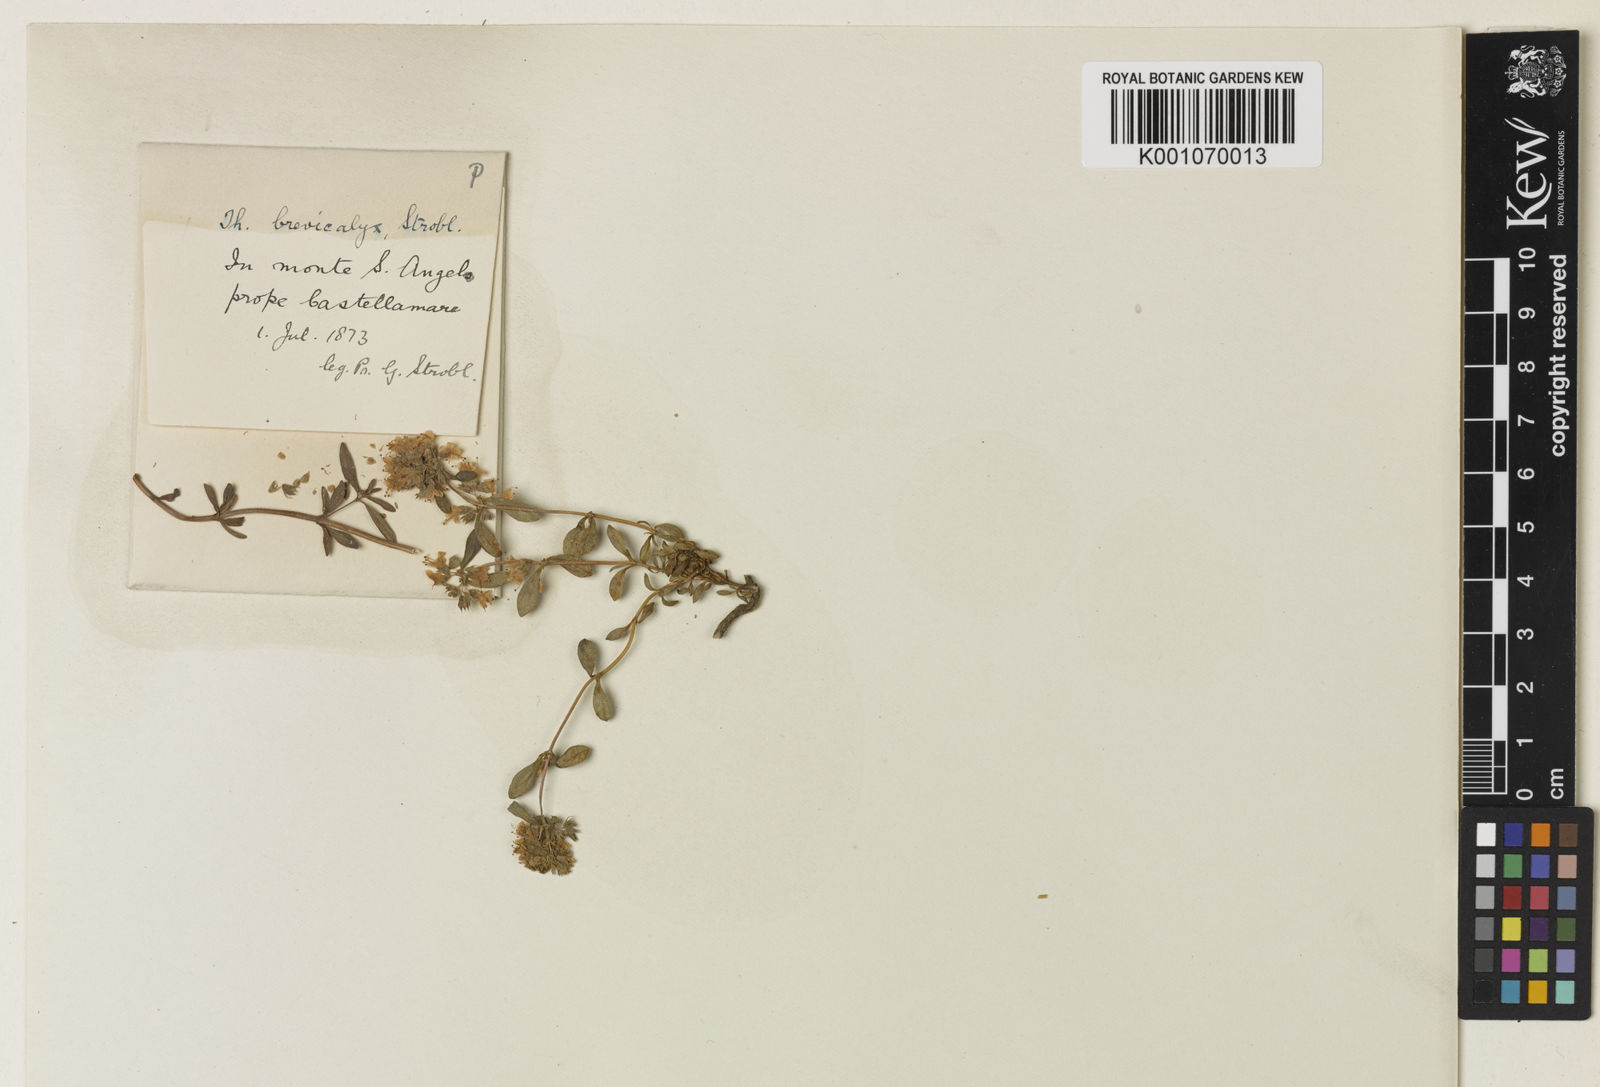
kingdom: Plantae
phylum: Tracheophyta
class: Magnoliopsida
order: Lamiales
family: Lamiaceae
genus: Thymus
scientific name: Thymus longicaulis
